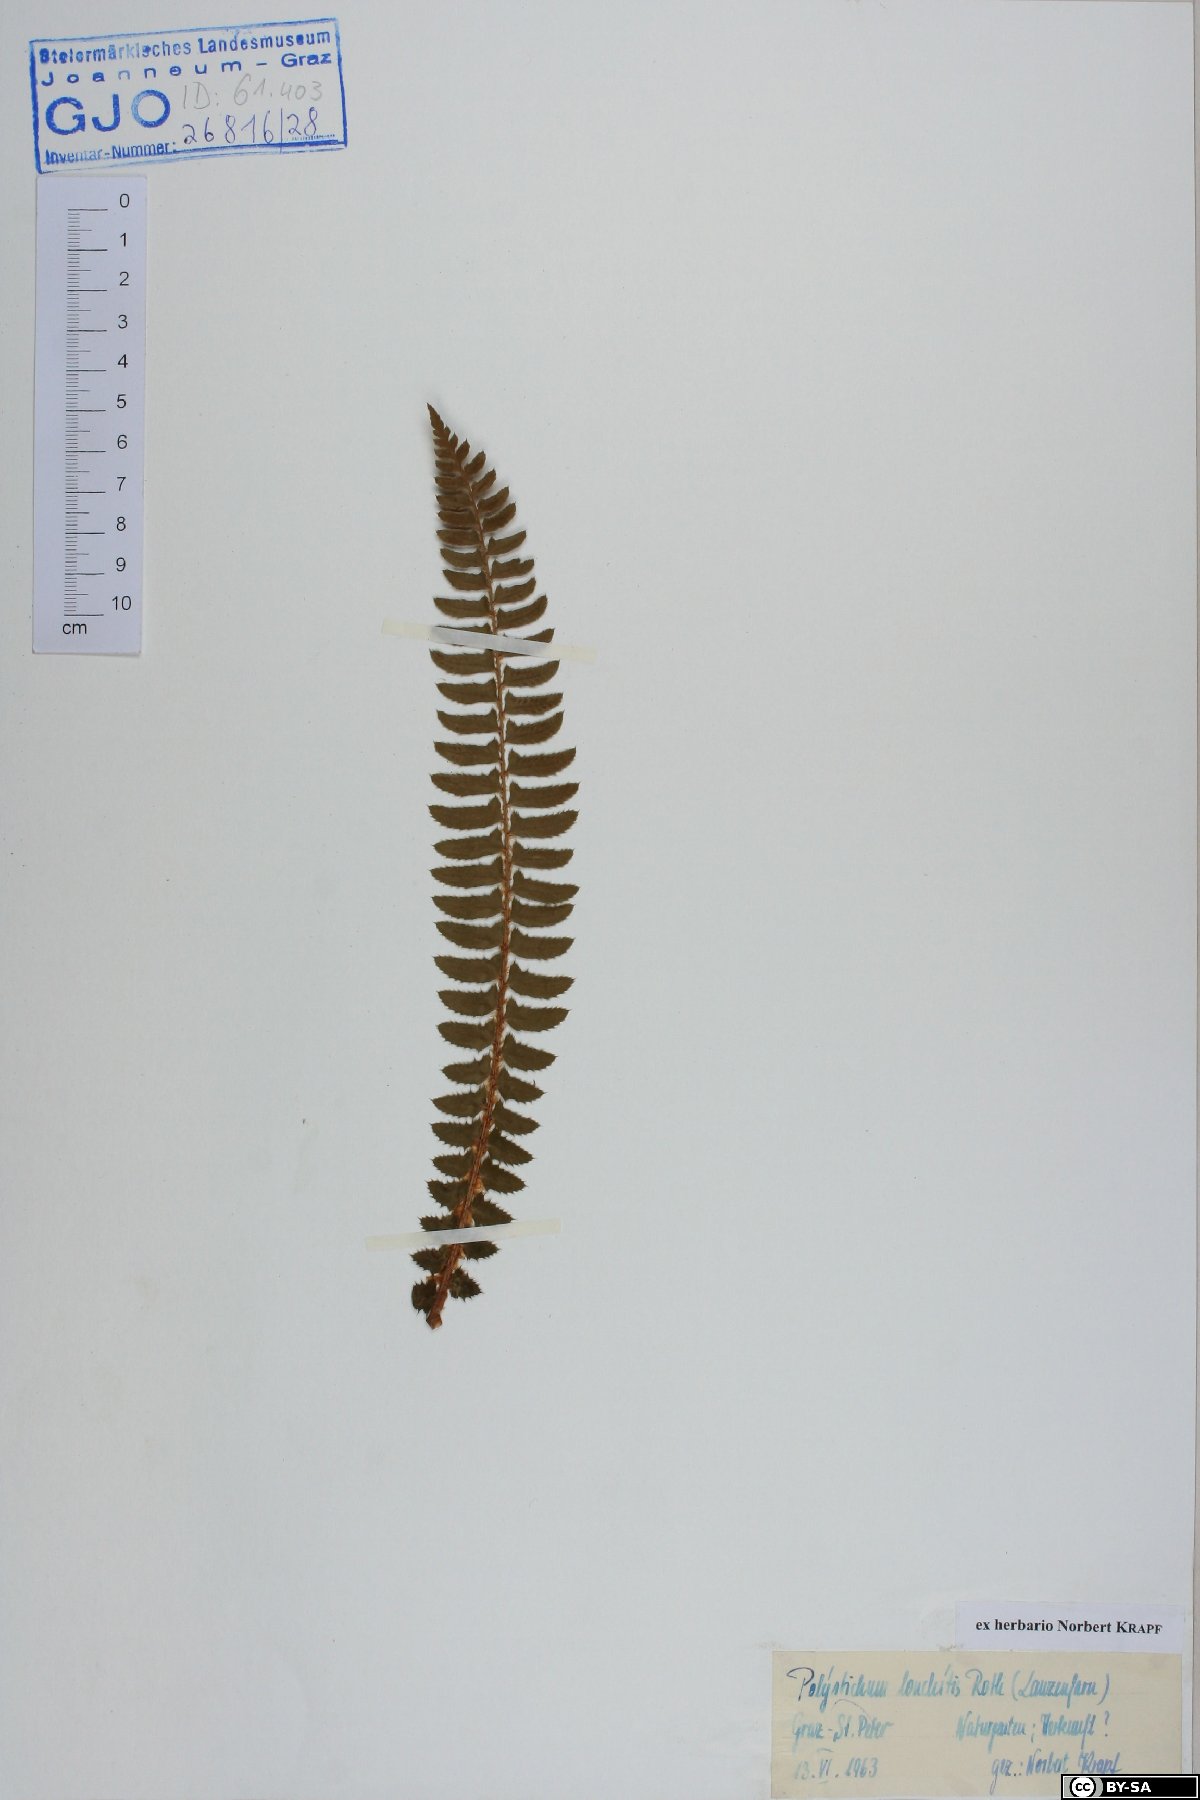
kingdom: Plantae
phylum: Tracheophyta
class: Polypodiopsida
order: Polypodiales
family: Dryopteridaceae
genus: Polystichum
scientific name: Polystichum lonchitis
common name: Holly fern
